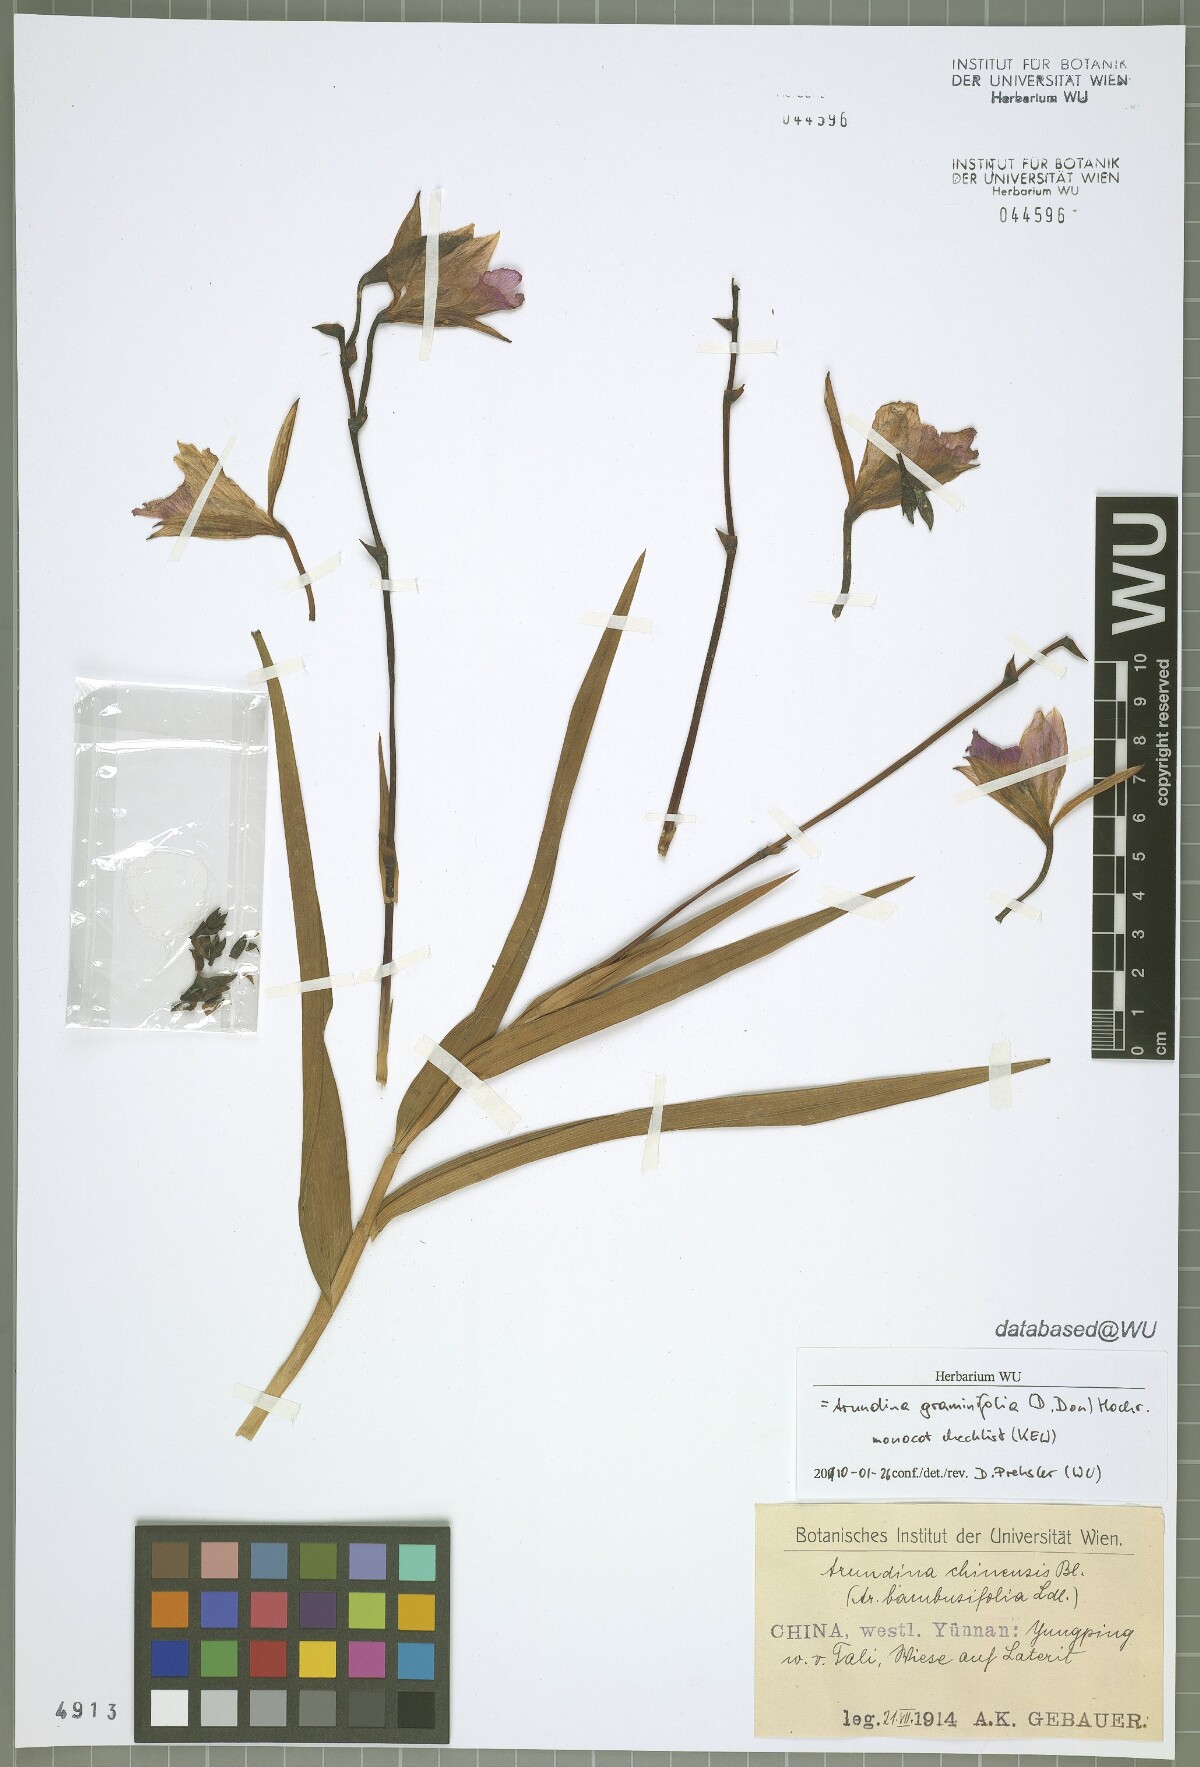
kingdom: Plantae
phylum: Tracheophyta
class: Liliopsida
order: Asparagales
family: Orchidaceae
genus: Arundina
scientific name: Arundina graminifolia
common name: Bamboo orchid
